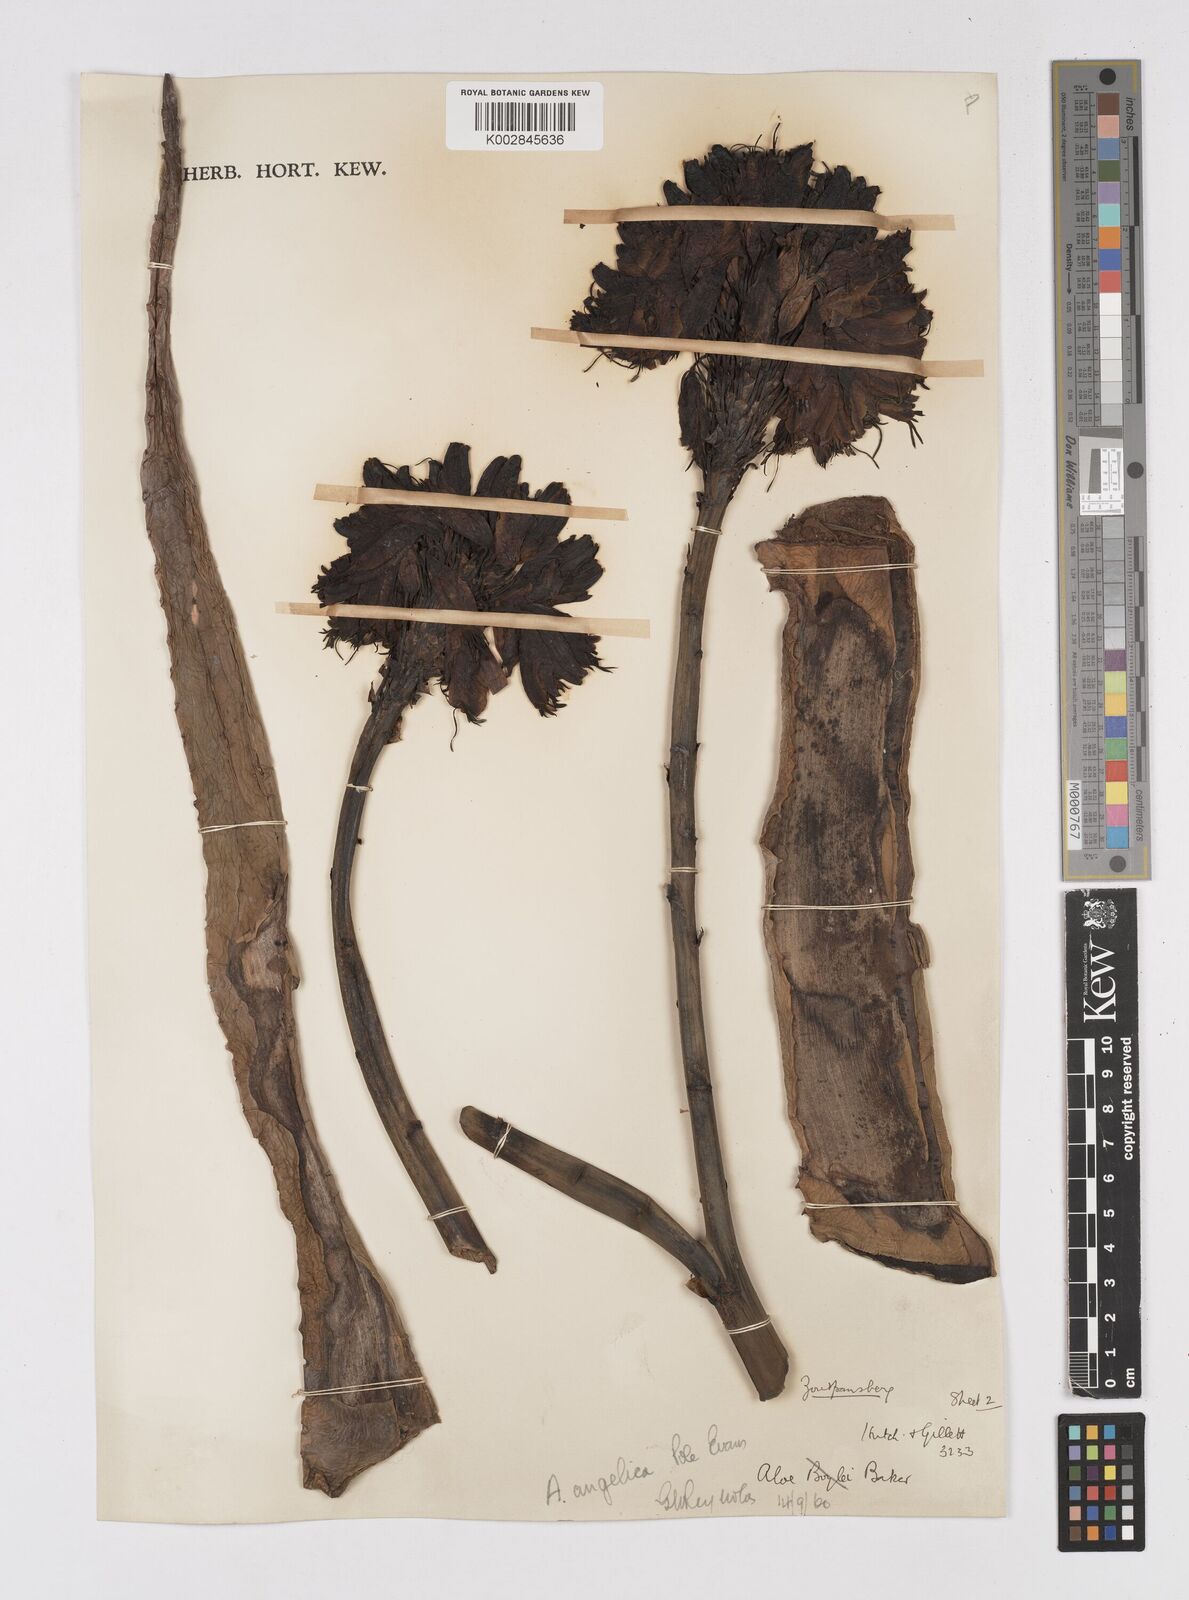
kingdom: Plantae
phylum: Tracheophyta
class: Liliopsida
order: Asparagales
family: Asphodelaceae
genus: Aloe
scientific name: Aloe angelica
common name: Wylliespoort aloe
